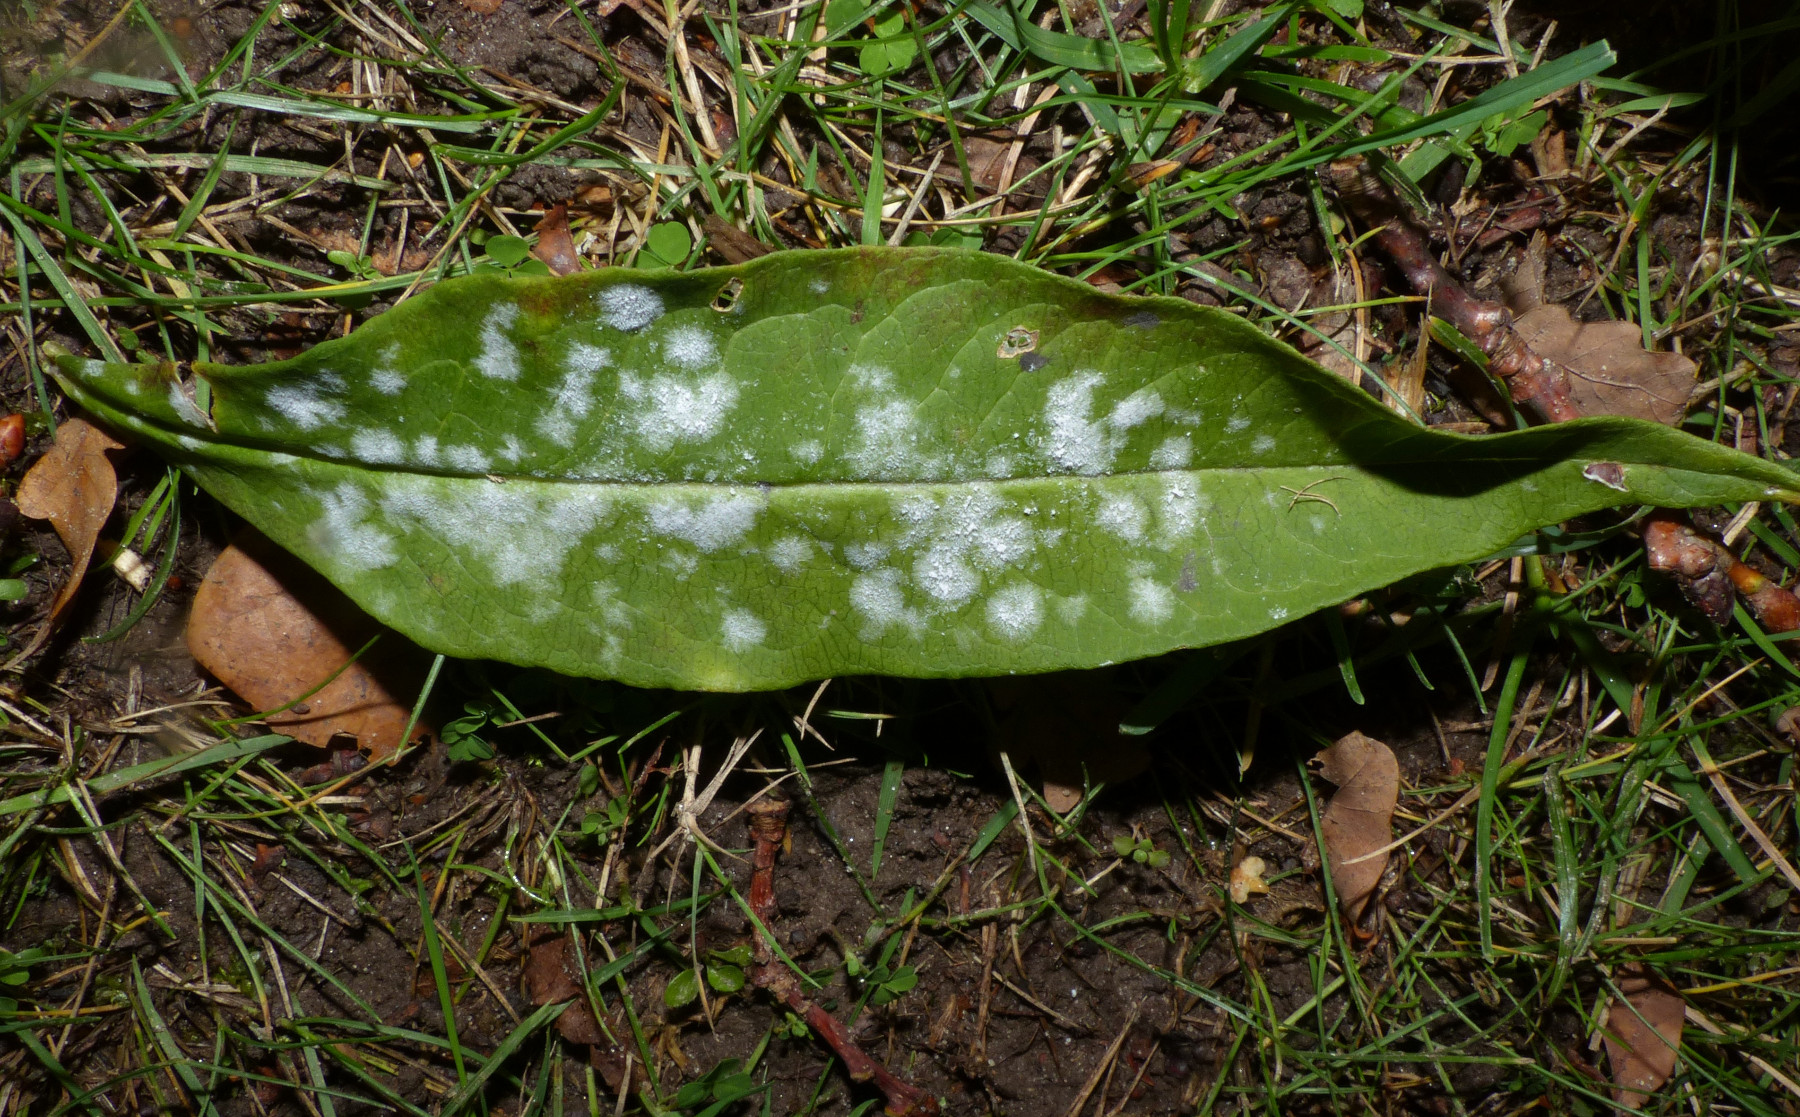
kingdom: Fungi
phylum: Ascomycota
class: Leotiomycetes
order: Helotiales
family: Erysiphaceae
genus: Golovinomyces
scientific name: Golovinomyces magnicellulatus
